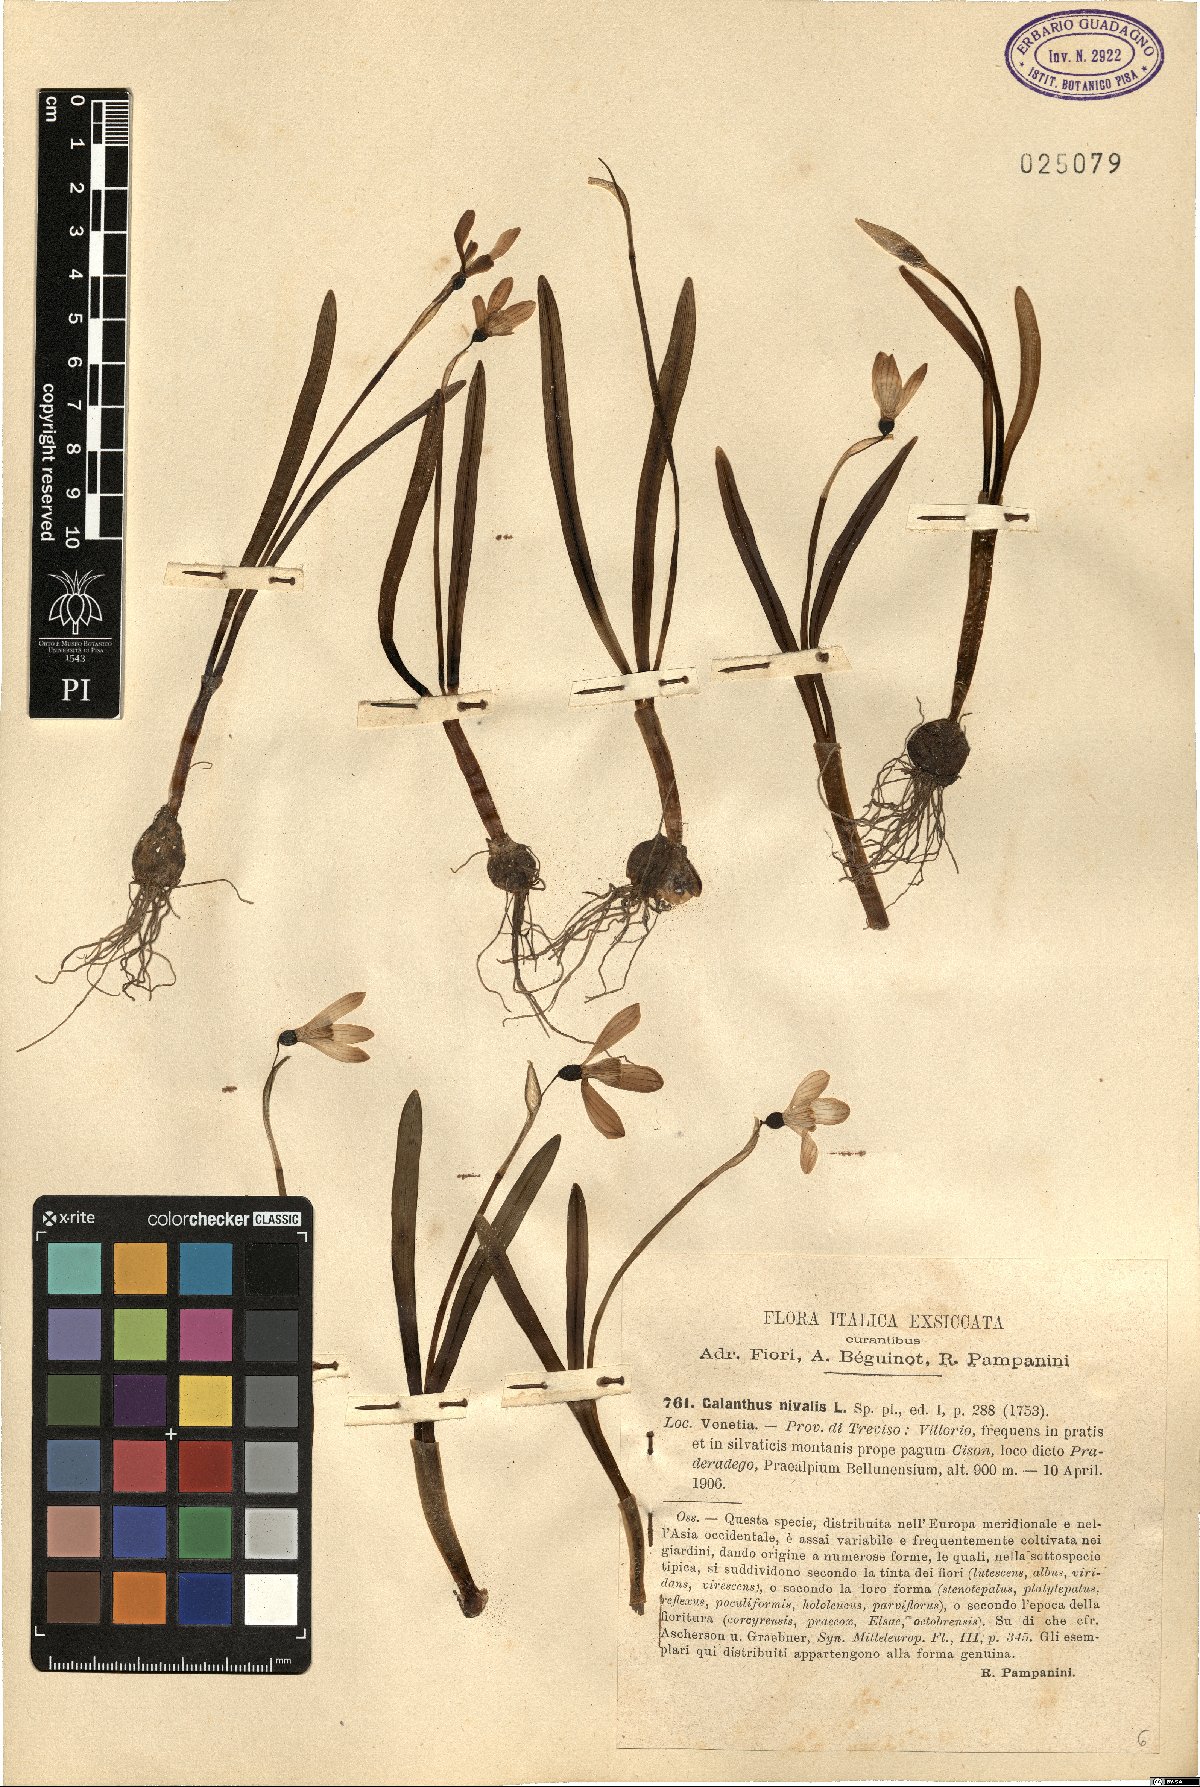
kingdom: Plantae
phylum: Tracheophyta
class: Liliopsida
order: Asparagales
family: Amaryllidaceae
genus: Galanthus
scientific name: Galanthus nivalis
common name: Snowdrop
